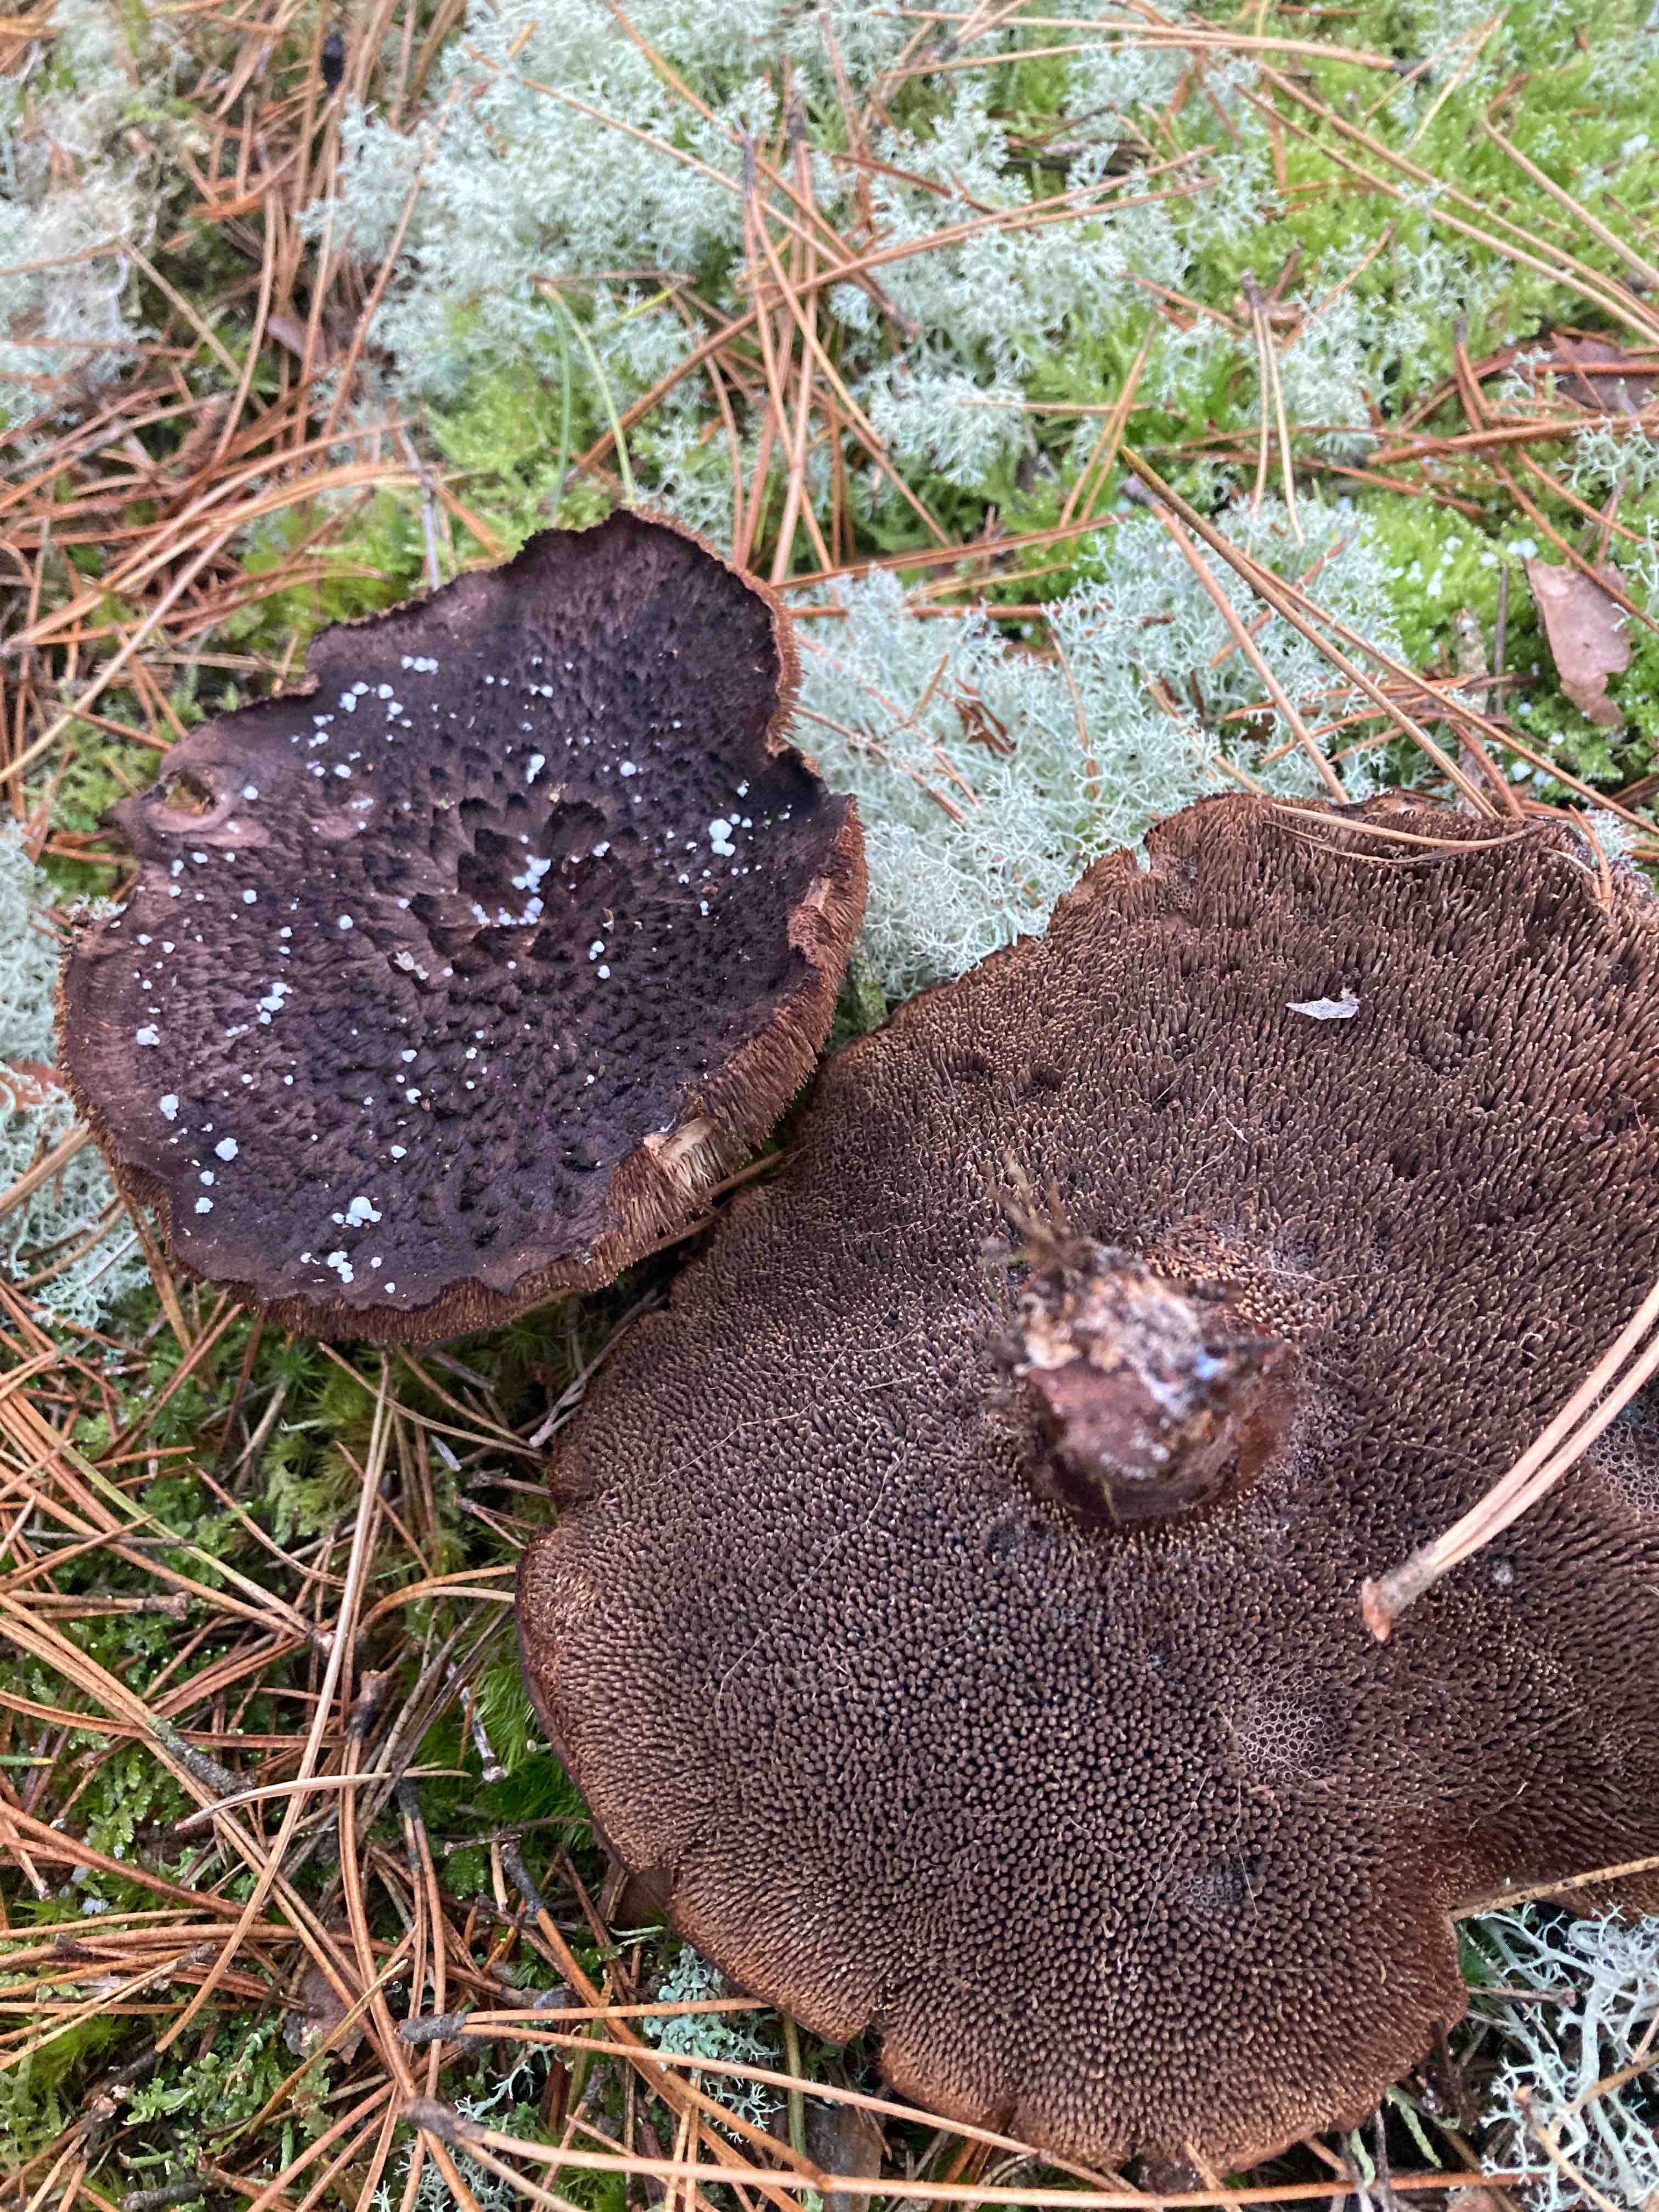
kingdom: Fungi
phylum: Basidiomycota
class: Agaricomycetes
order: Thelephorales
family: Bankeraceae
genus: Sarcodon
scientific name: Sarcodon squamosus
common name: småskællet kødpigsvamp
